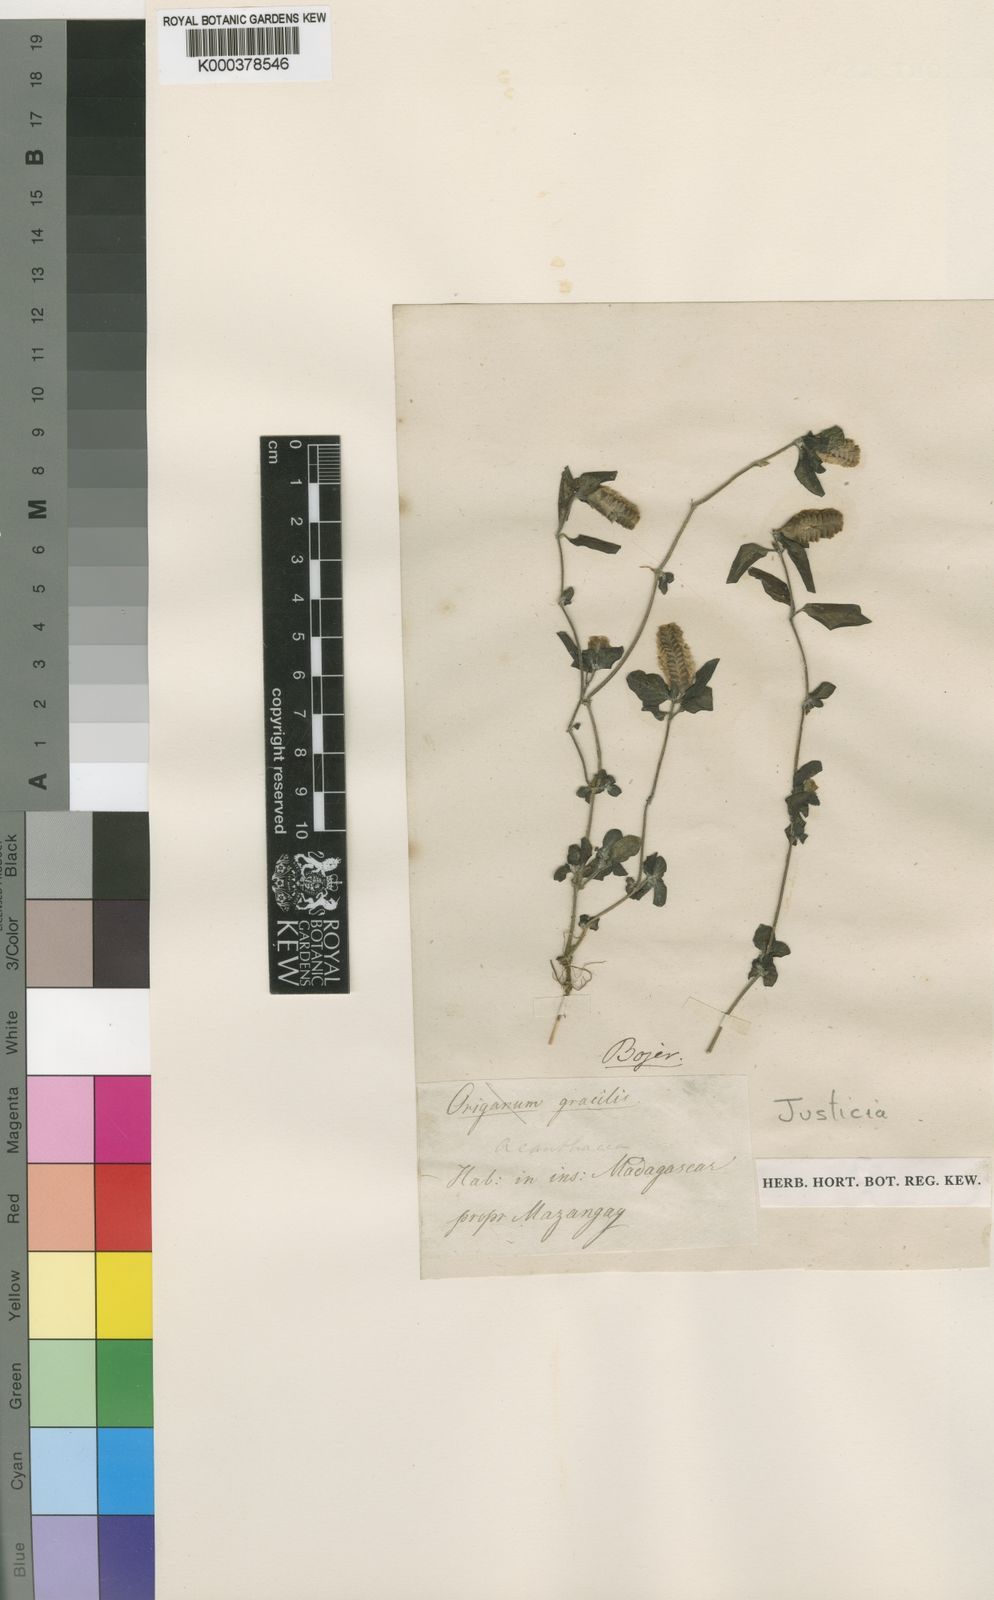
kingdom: Plantae
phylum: Tracheophyta
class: Magnoliopsida
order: Lamiales
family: Acanthaceae
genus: Anisostachya
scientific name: Anisostachya reptans
